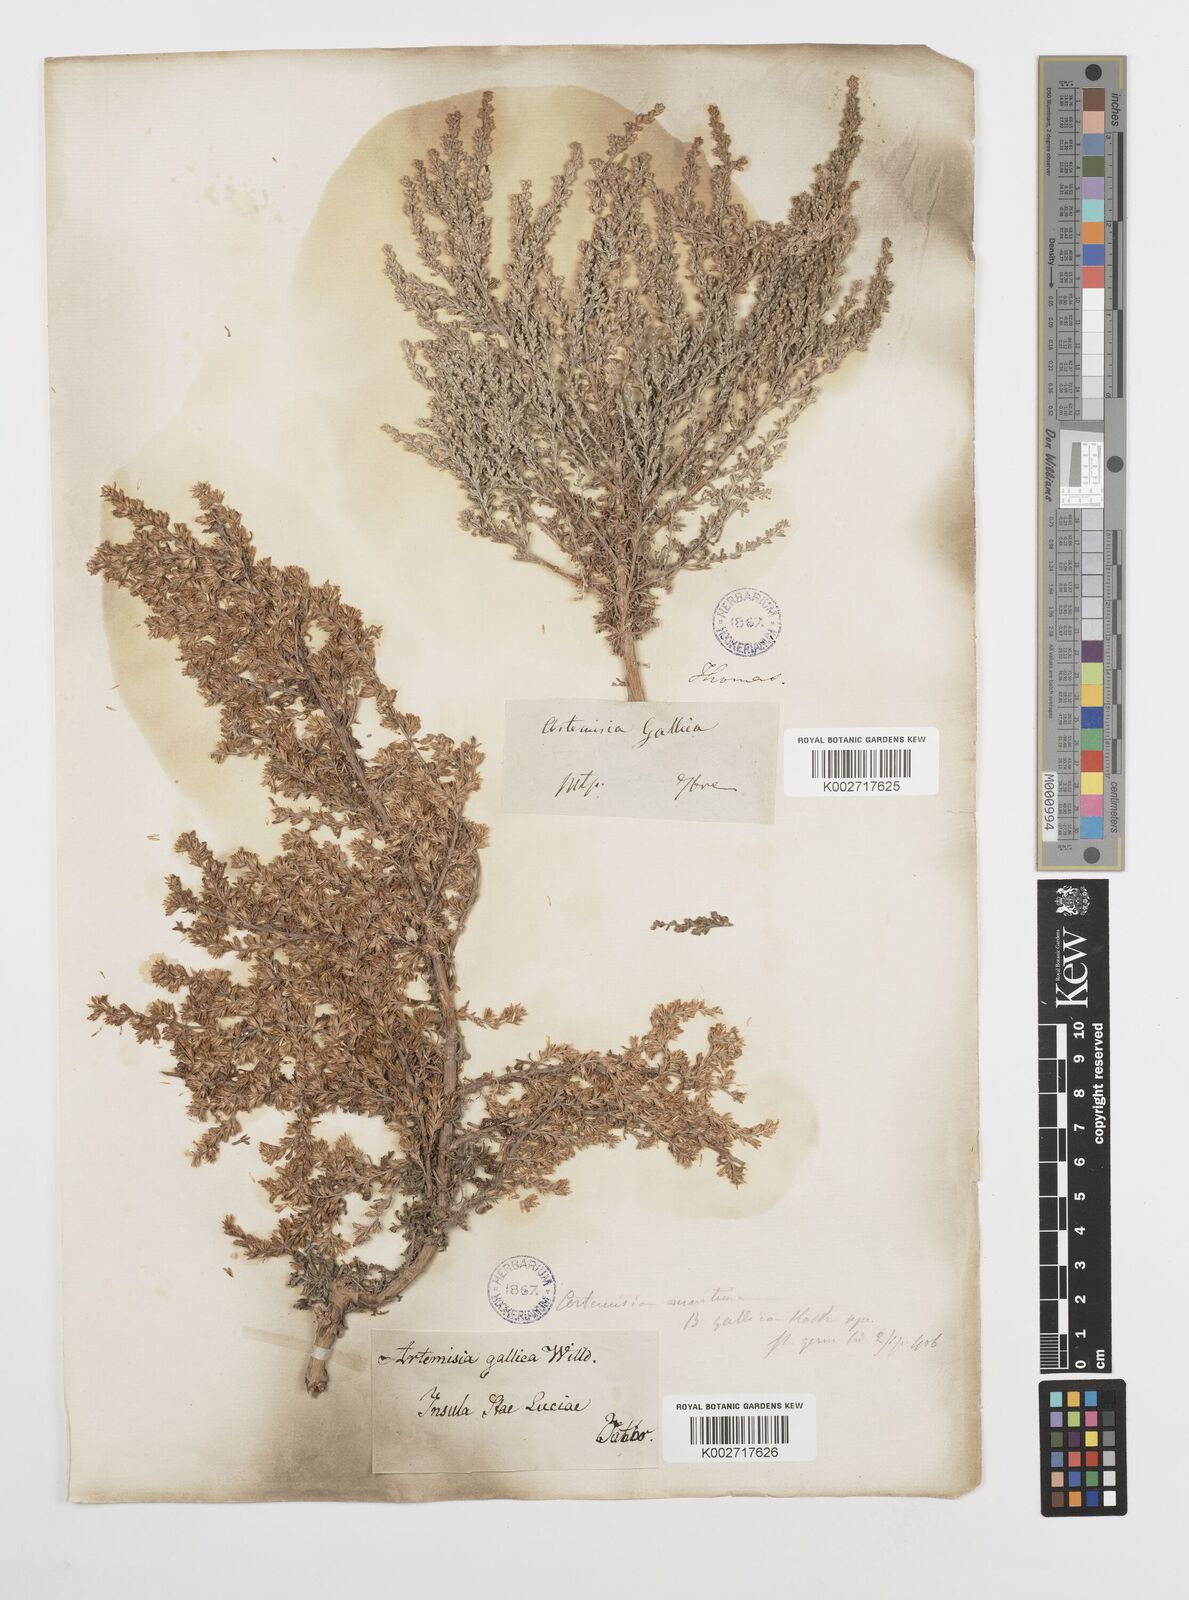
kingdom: Plantae
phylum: Tracheophyta
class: Magnoliopsida
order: Asterales
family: Asteraceae
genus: Artemisia
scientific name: Artemisia campestris
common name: Field wormwood
